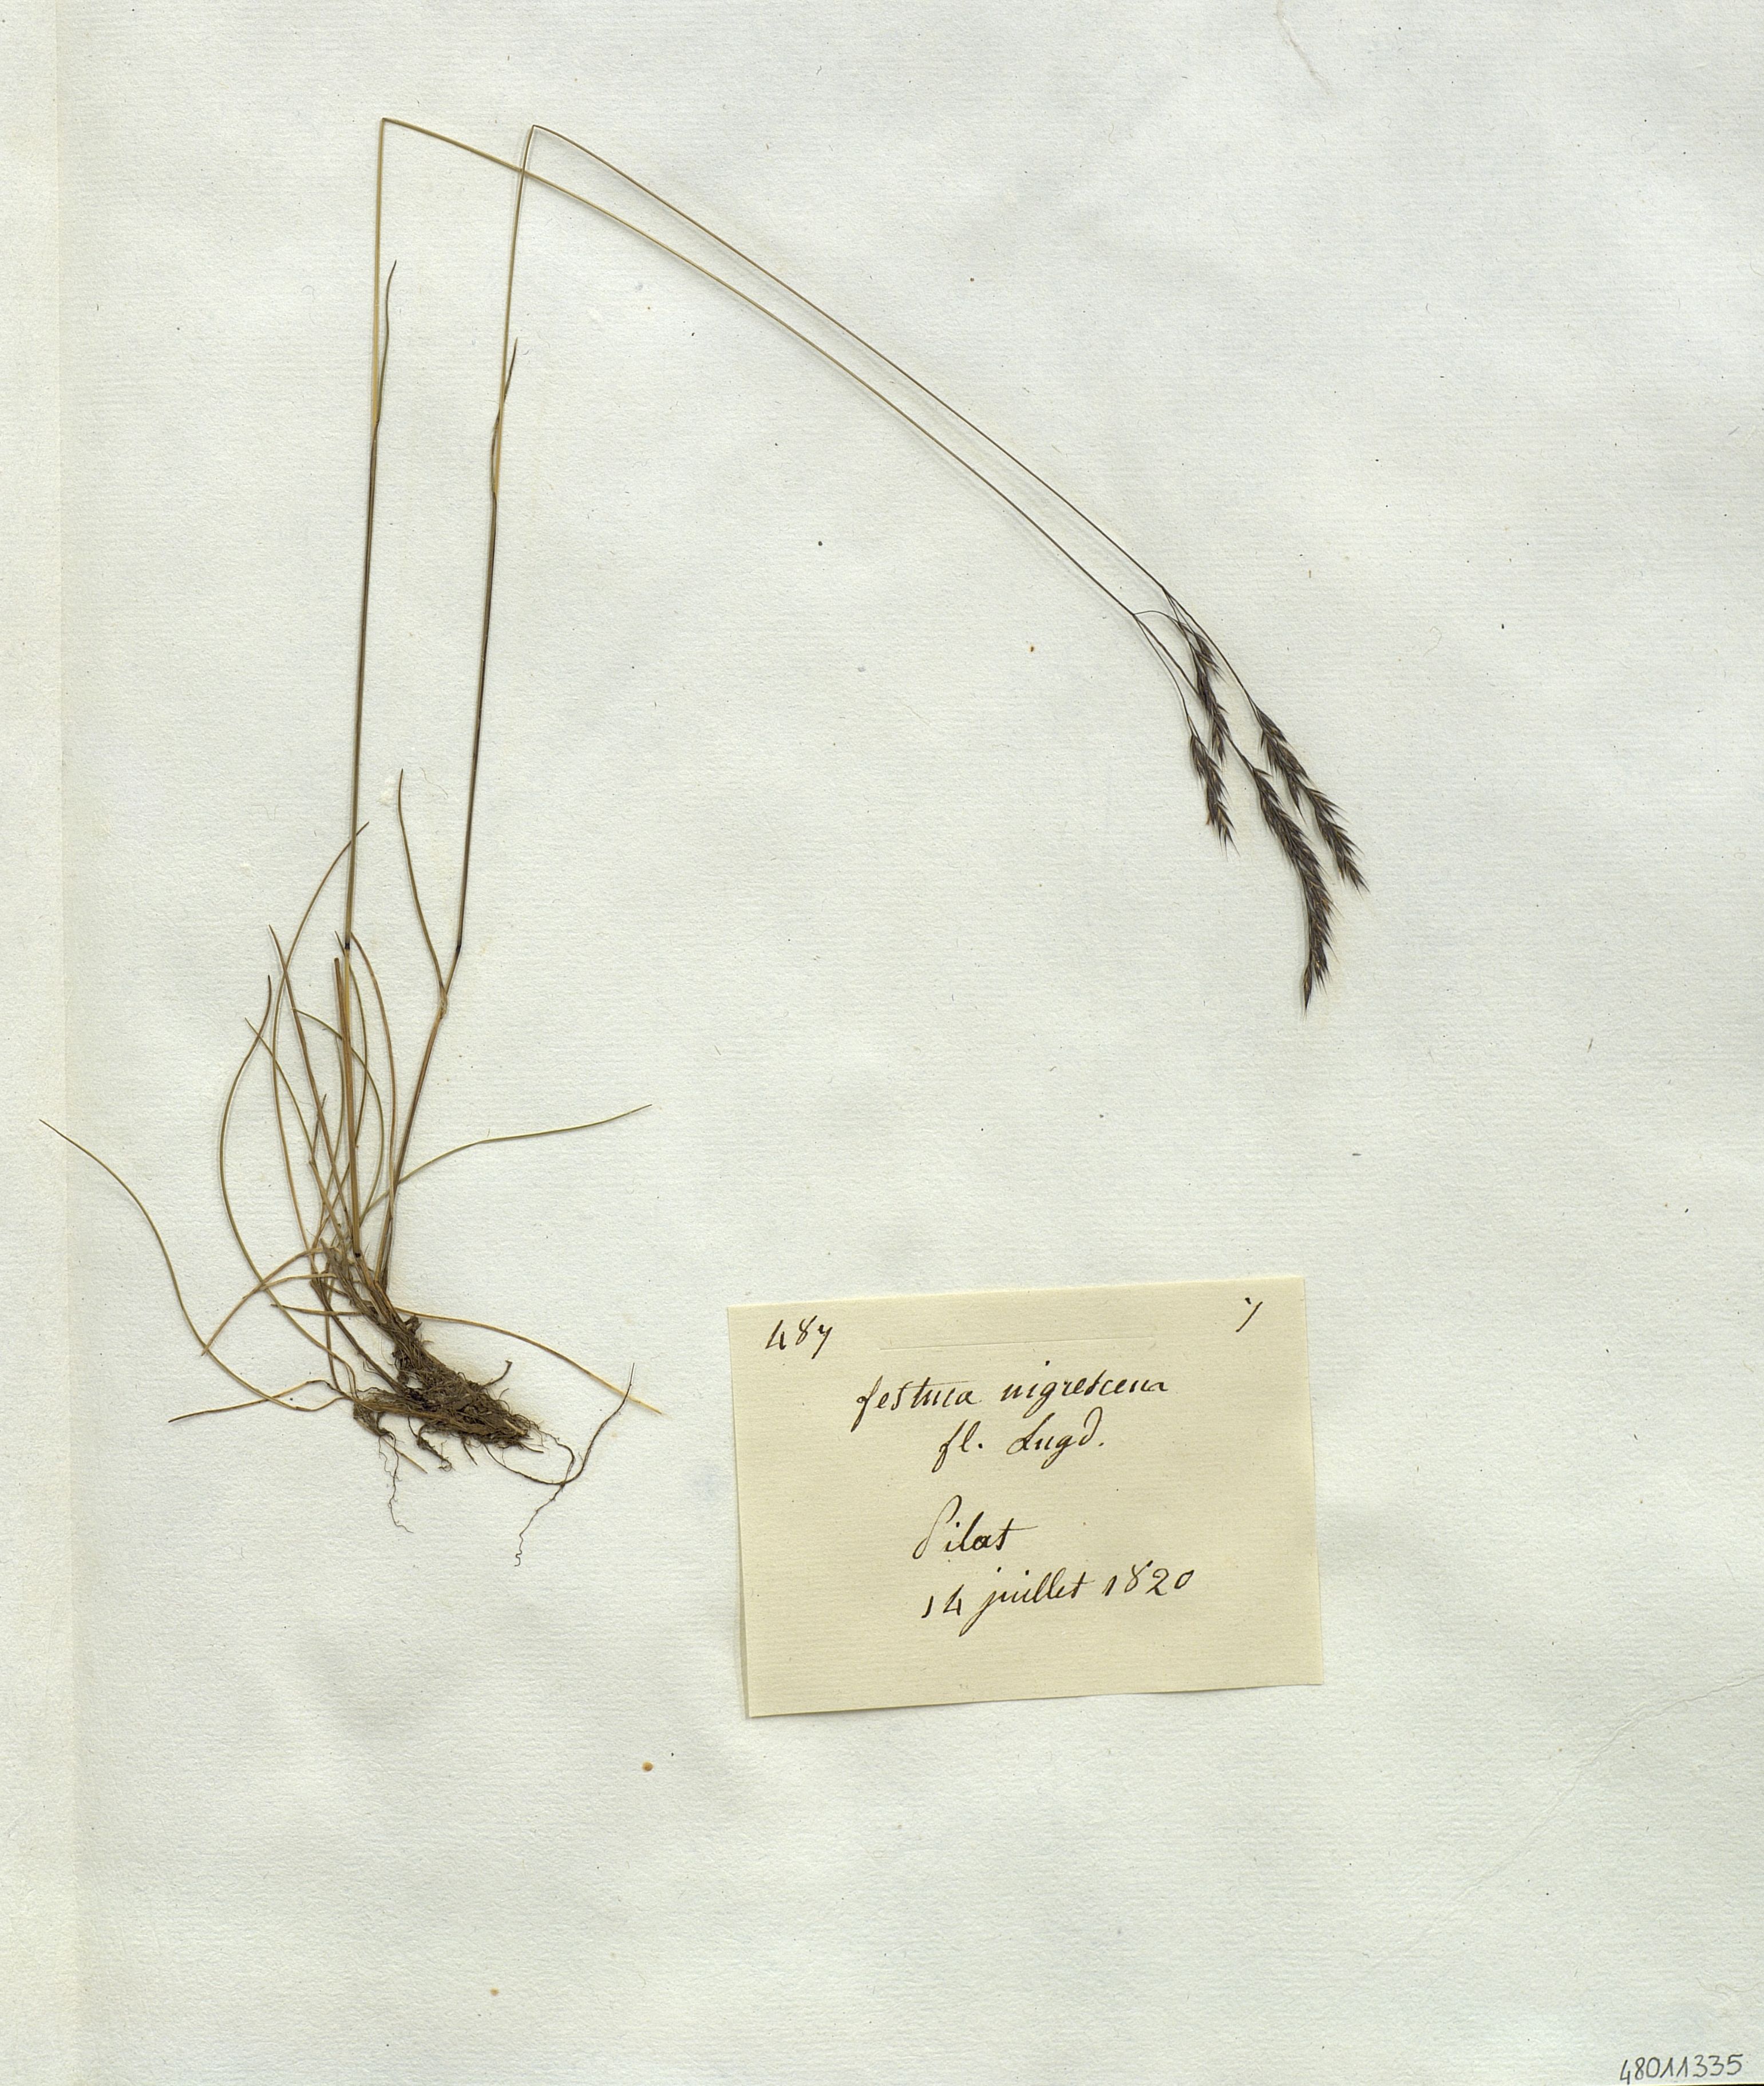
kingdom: Plantae
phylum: Tracheophyta
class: Liliopsida
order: Poales
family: Poaceae
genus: Festuca
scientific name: Festuca nigrescens
